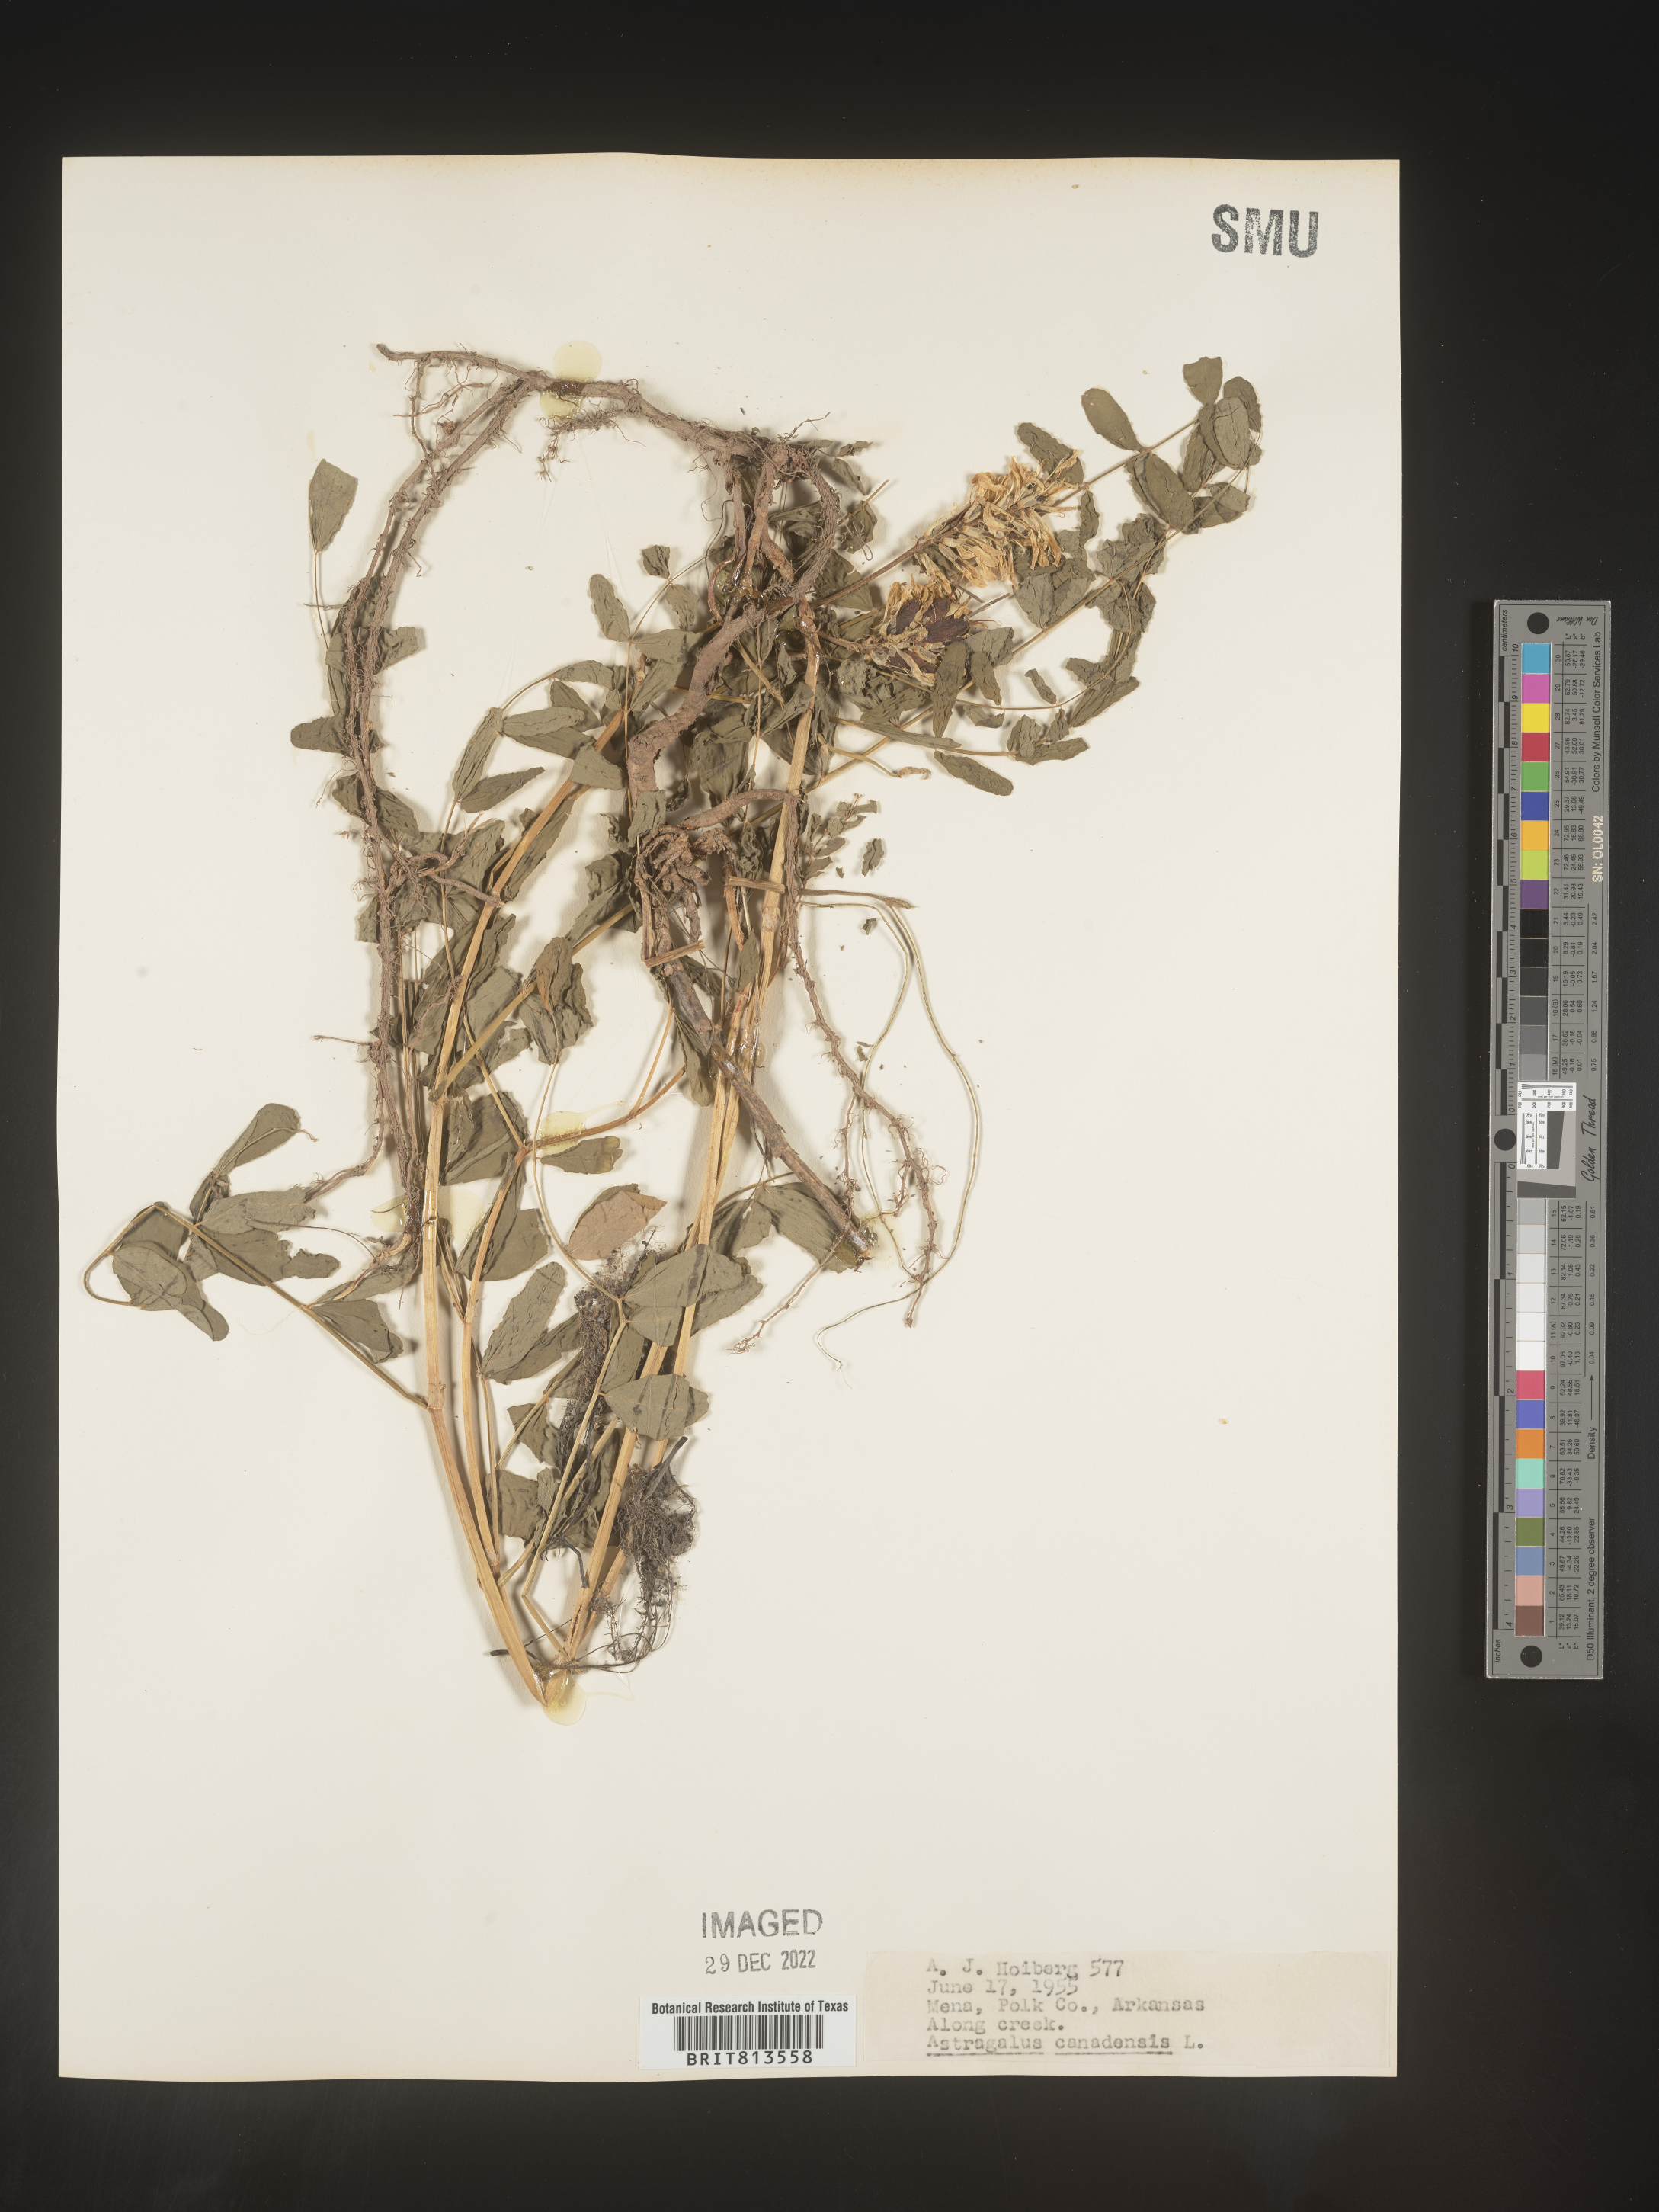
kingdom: Plantae
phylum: Tracheophyta
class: Magnoliopsida
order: Fabales
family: Fabaceae
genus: Astragalus
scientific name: Astragalus canadensis
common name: Canada milk-vetch
